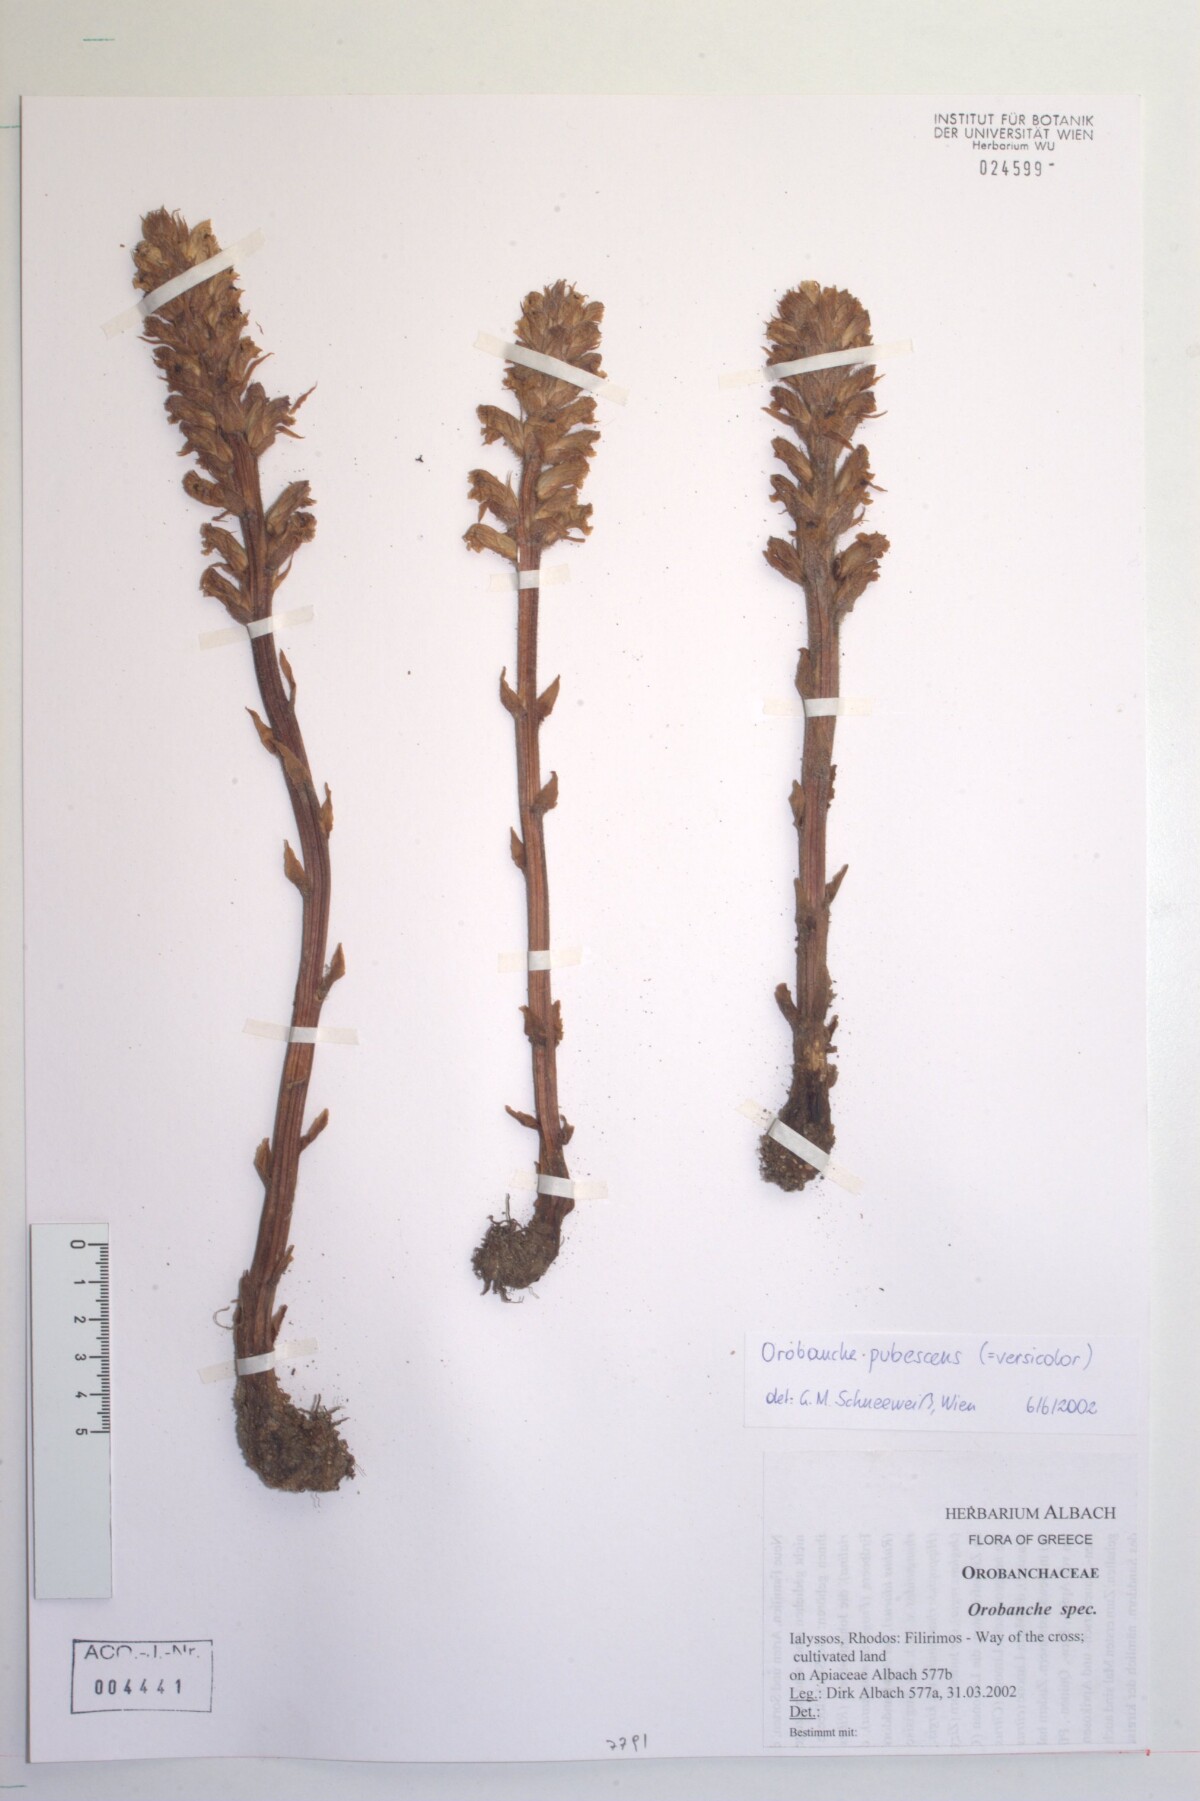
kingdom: Plantae
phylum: Tracheophyta
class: Magnoliopsida
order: Lamiales
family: Orobanchaceae
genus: Orobanche
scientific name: Orobanche pubescens
